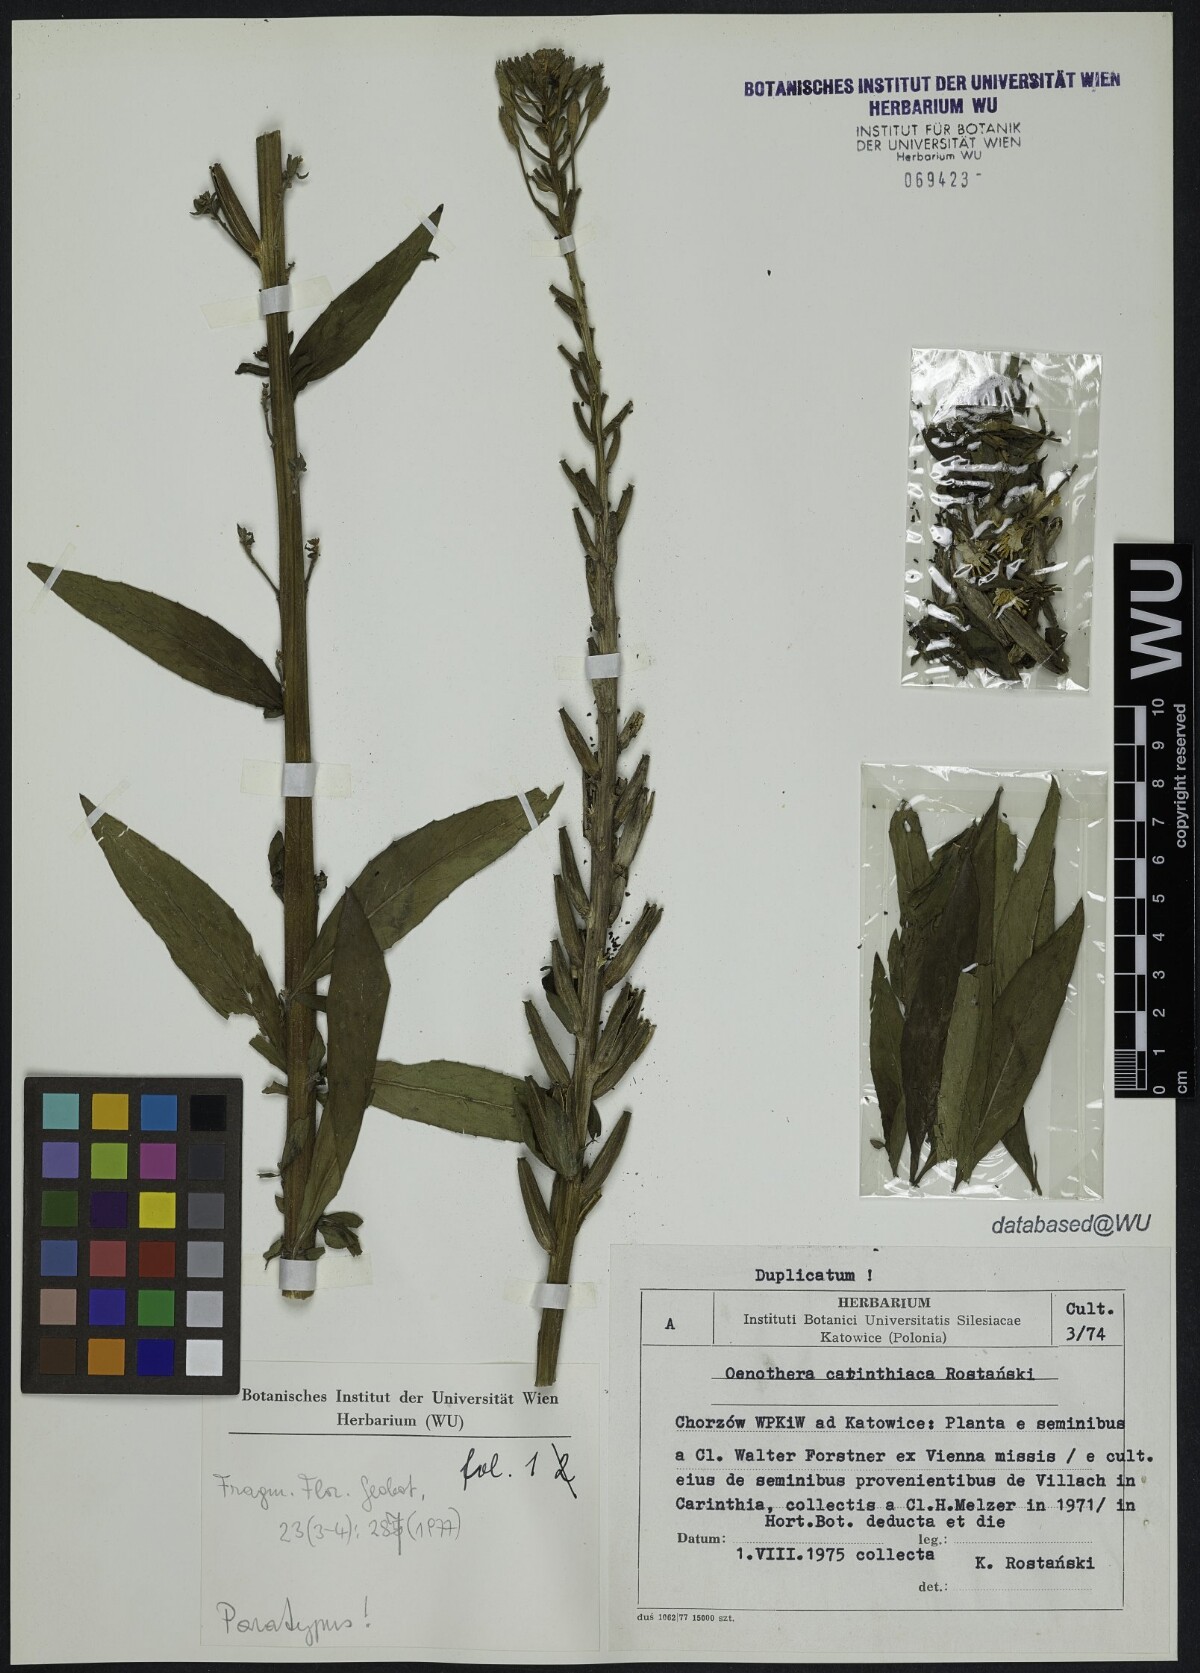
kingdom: Plantae
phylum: Tracheophyta
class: Magnoliopsida
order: Myrtales
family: Onagraceae
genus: Oenothera
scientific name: Oenothera carinthiaca
